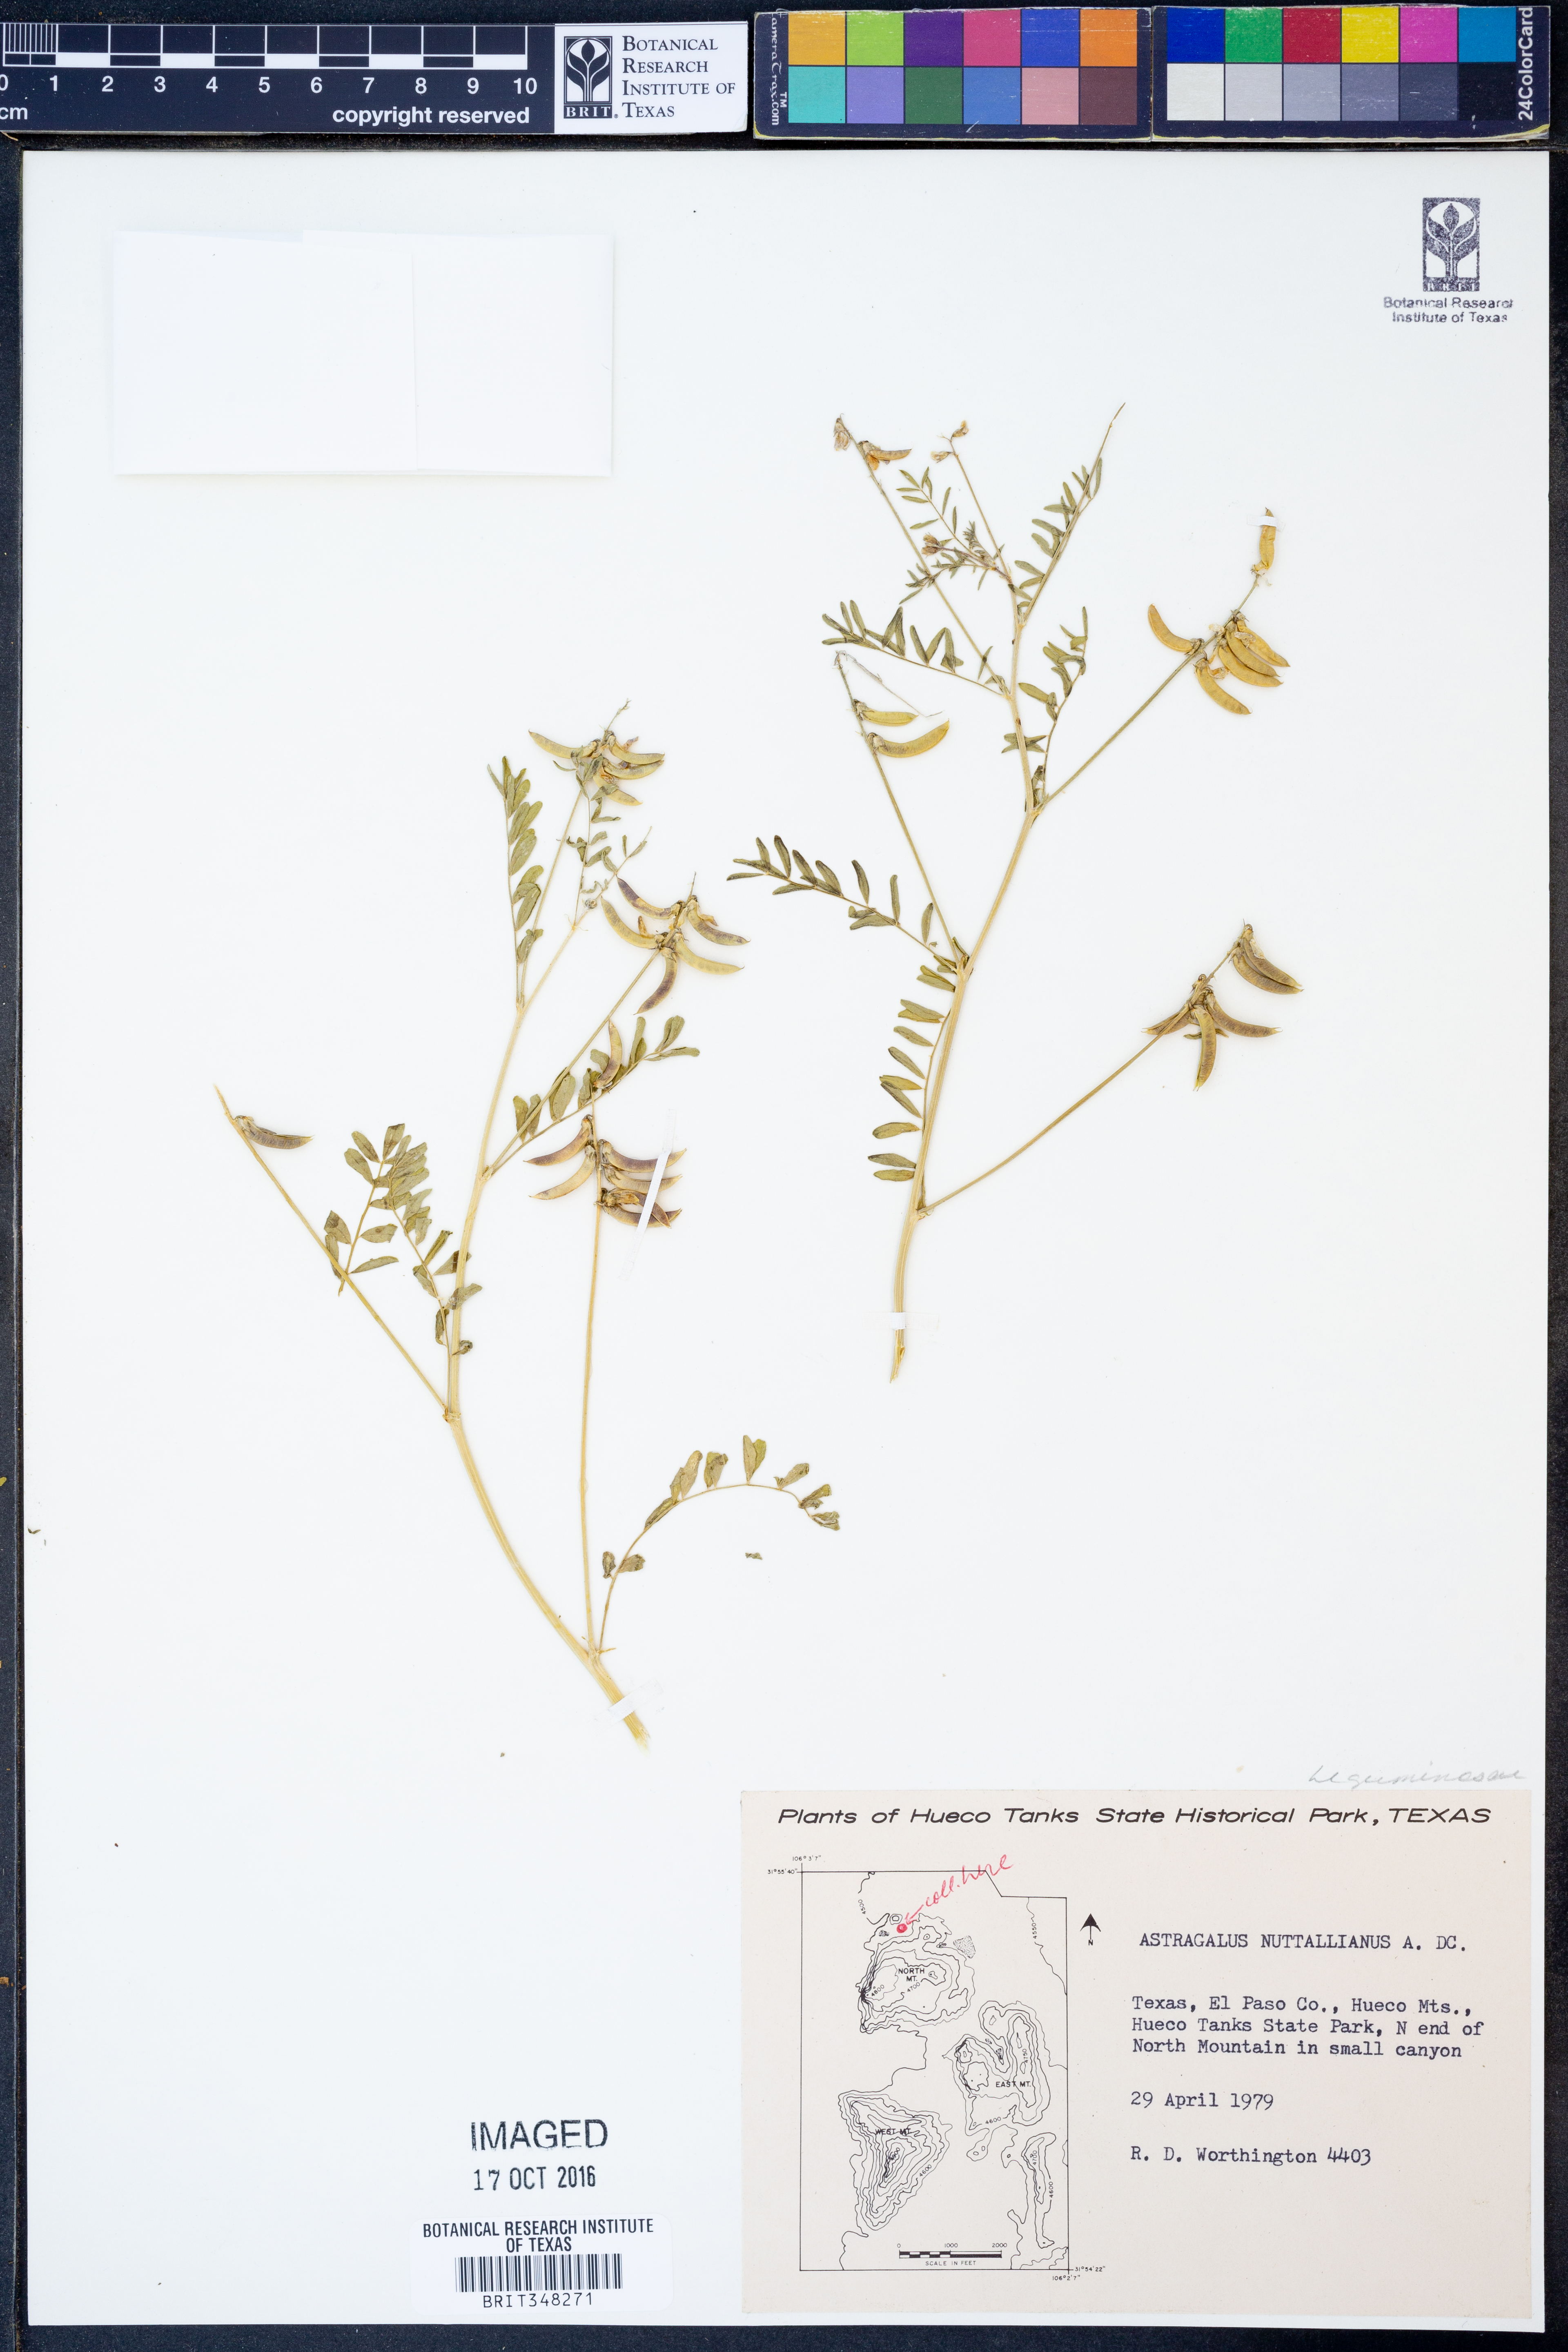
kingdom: Plantae
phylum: Tracheophyta
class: Magnoliopsida
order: Fabales
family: Fabaceae
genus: Astragalus
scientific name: Astragalus nuttallianus
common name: Smallflowered milkvetch
